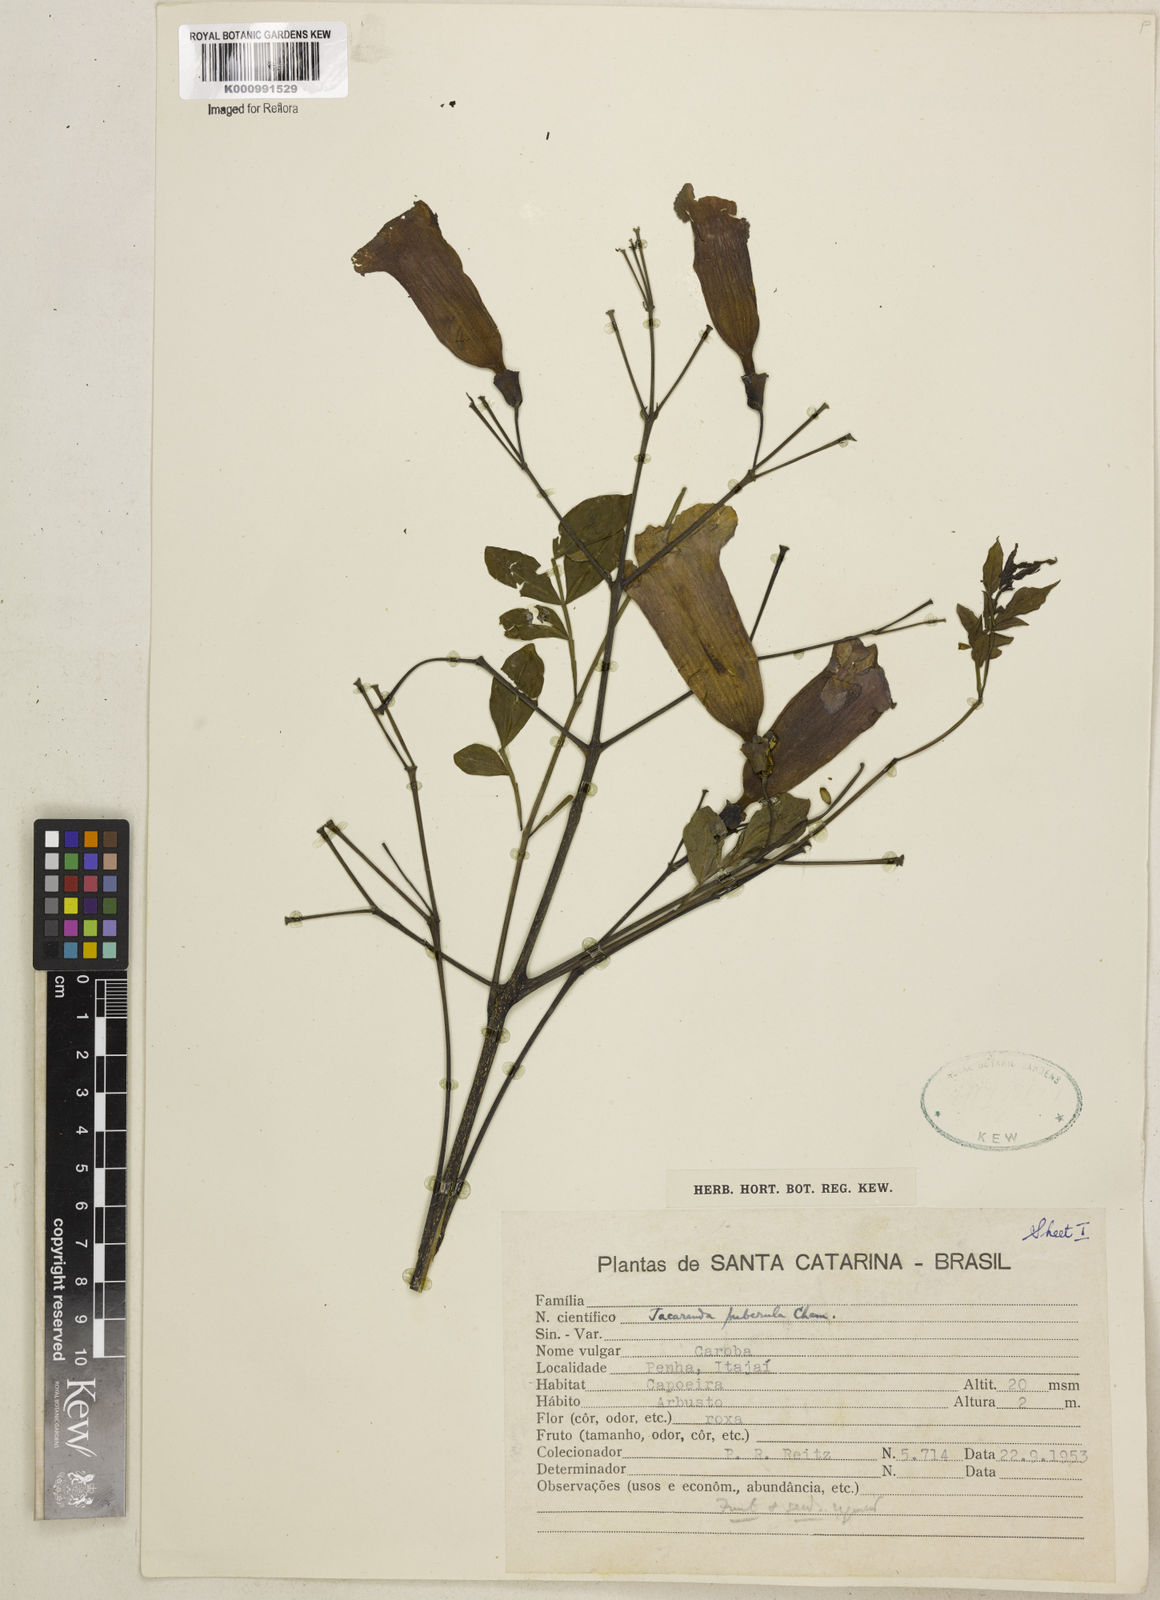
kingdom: Plantae
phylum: Tracheophyta
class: Magnoliopsida
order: Lamiales
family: Bignoniaceae
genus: Jacaranda
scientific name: Jacaranda puberula
